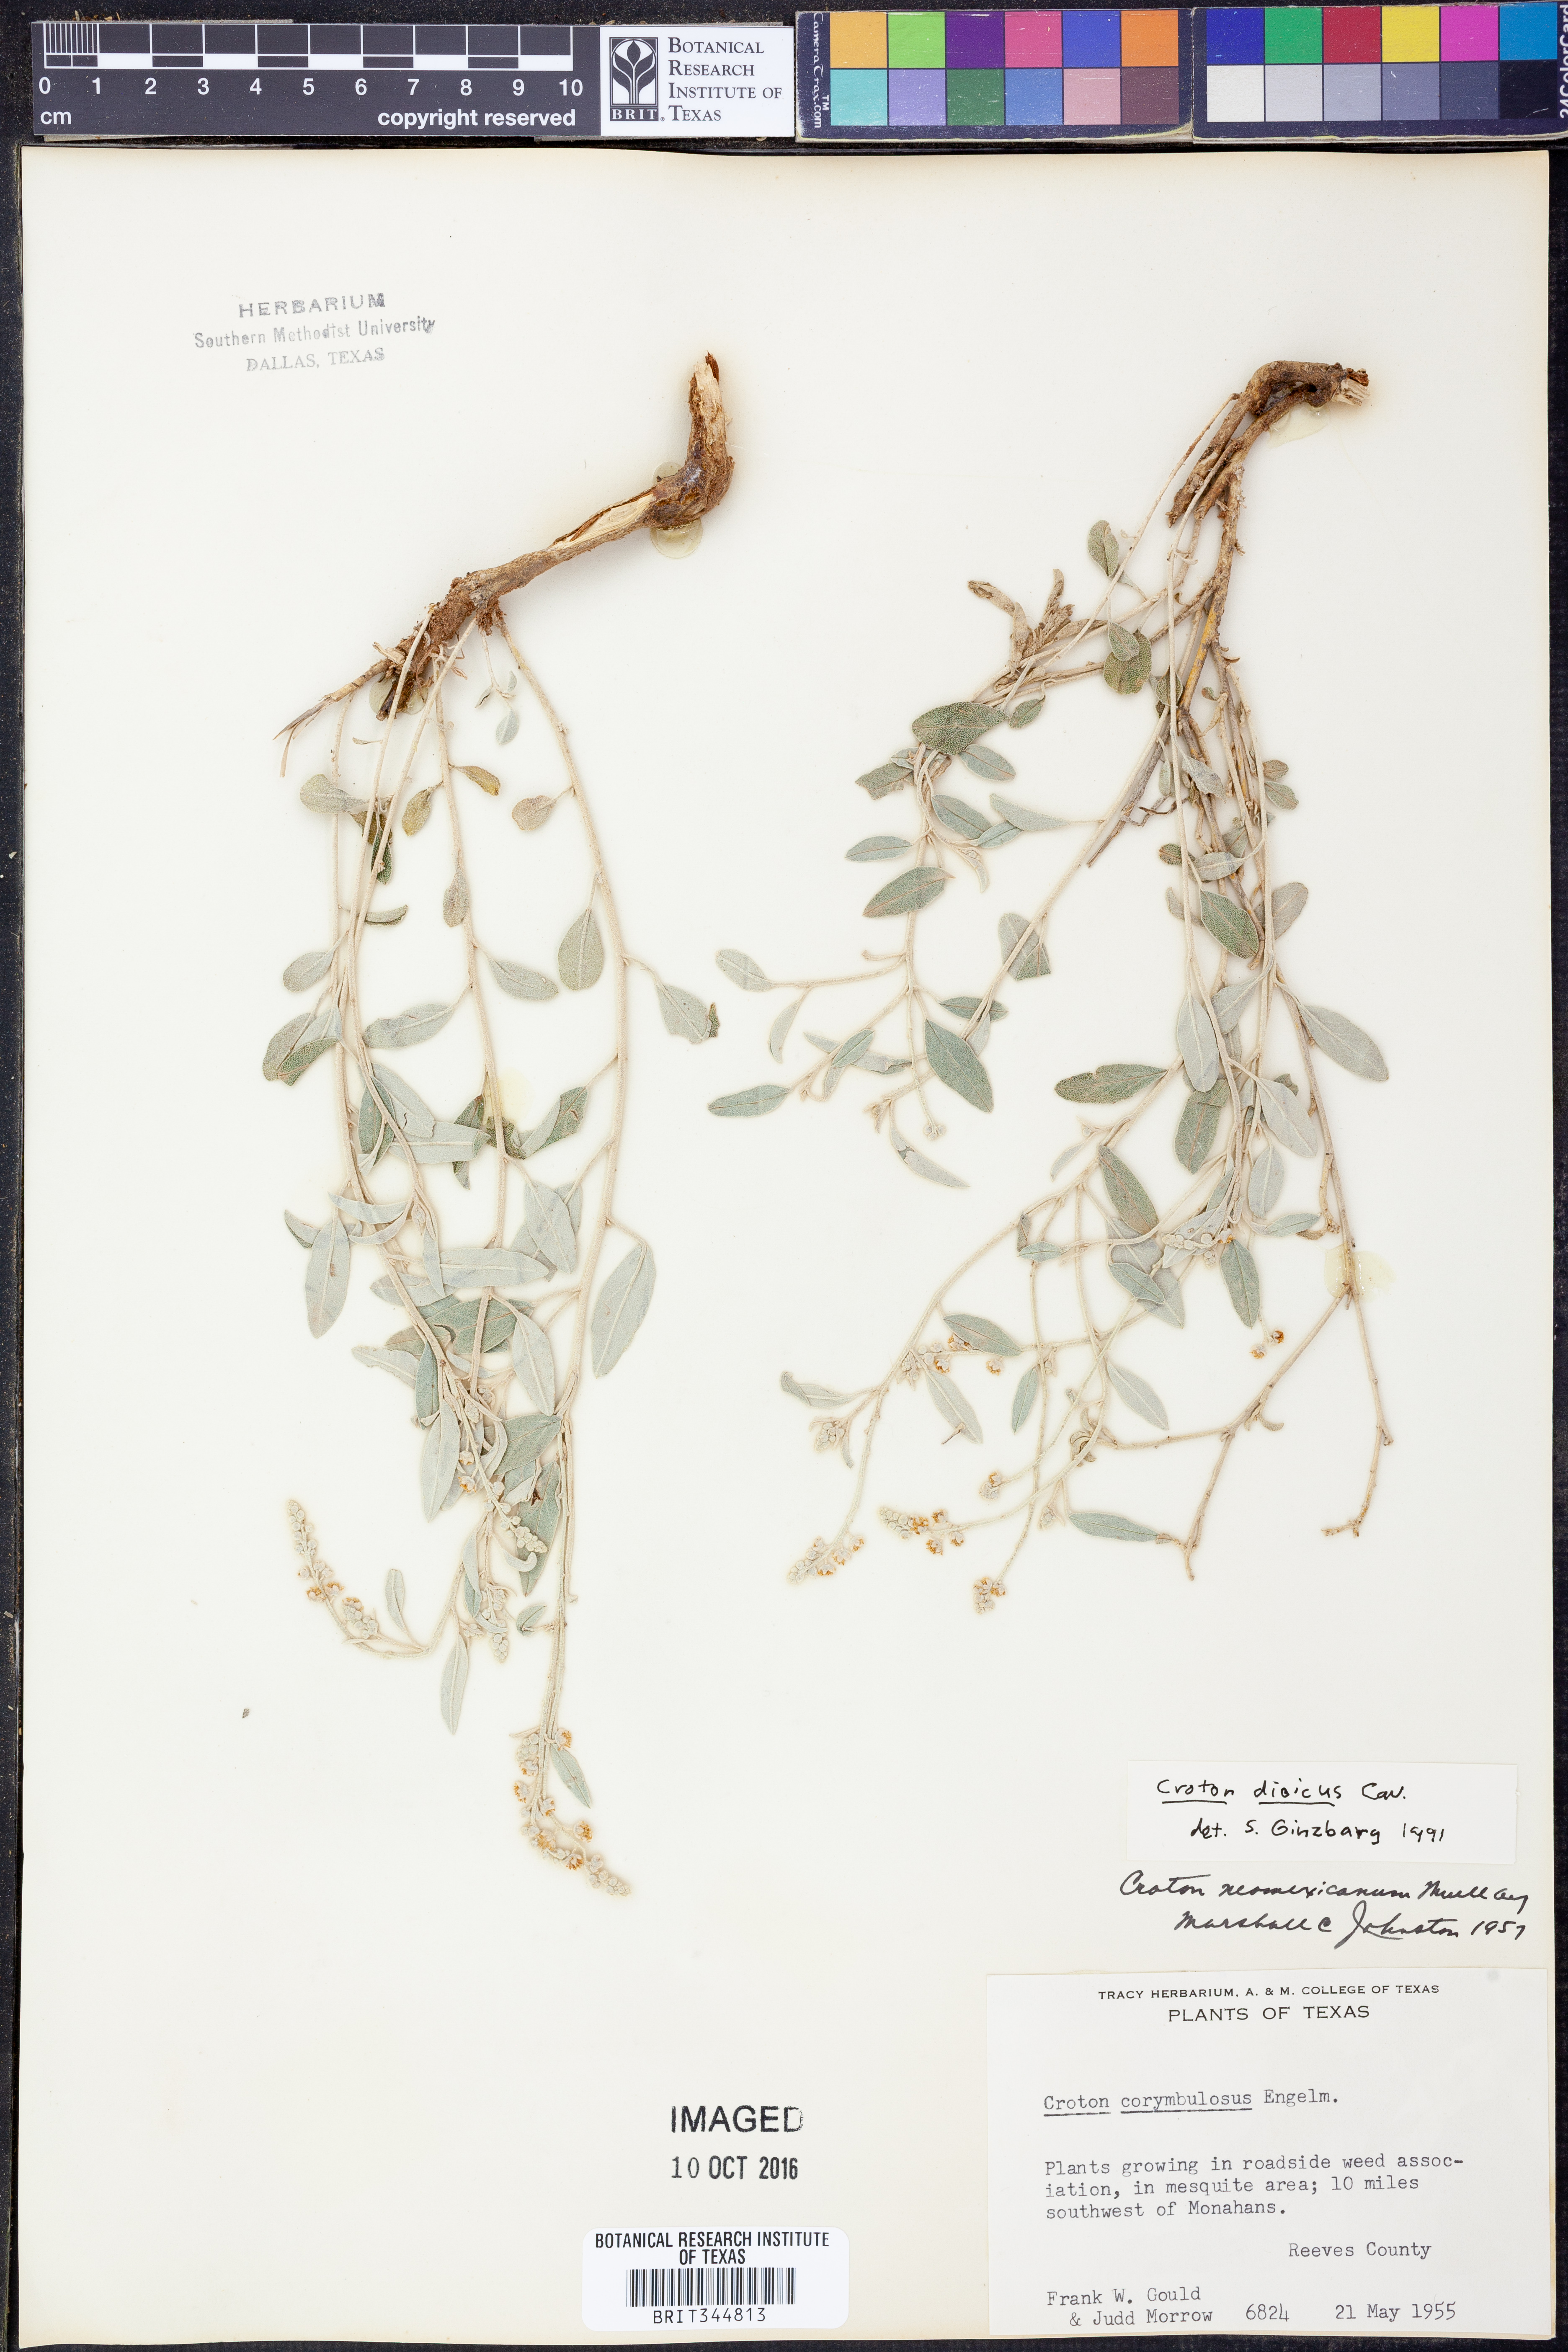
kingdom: Plantae
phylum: Tracheophyta
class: Magnoliopsida
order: Malpighiales
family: Euphorbiaceae
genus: Croton
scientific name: Croton dioicus
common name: Grassland croton
